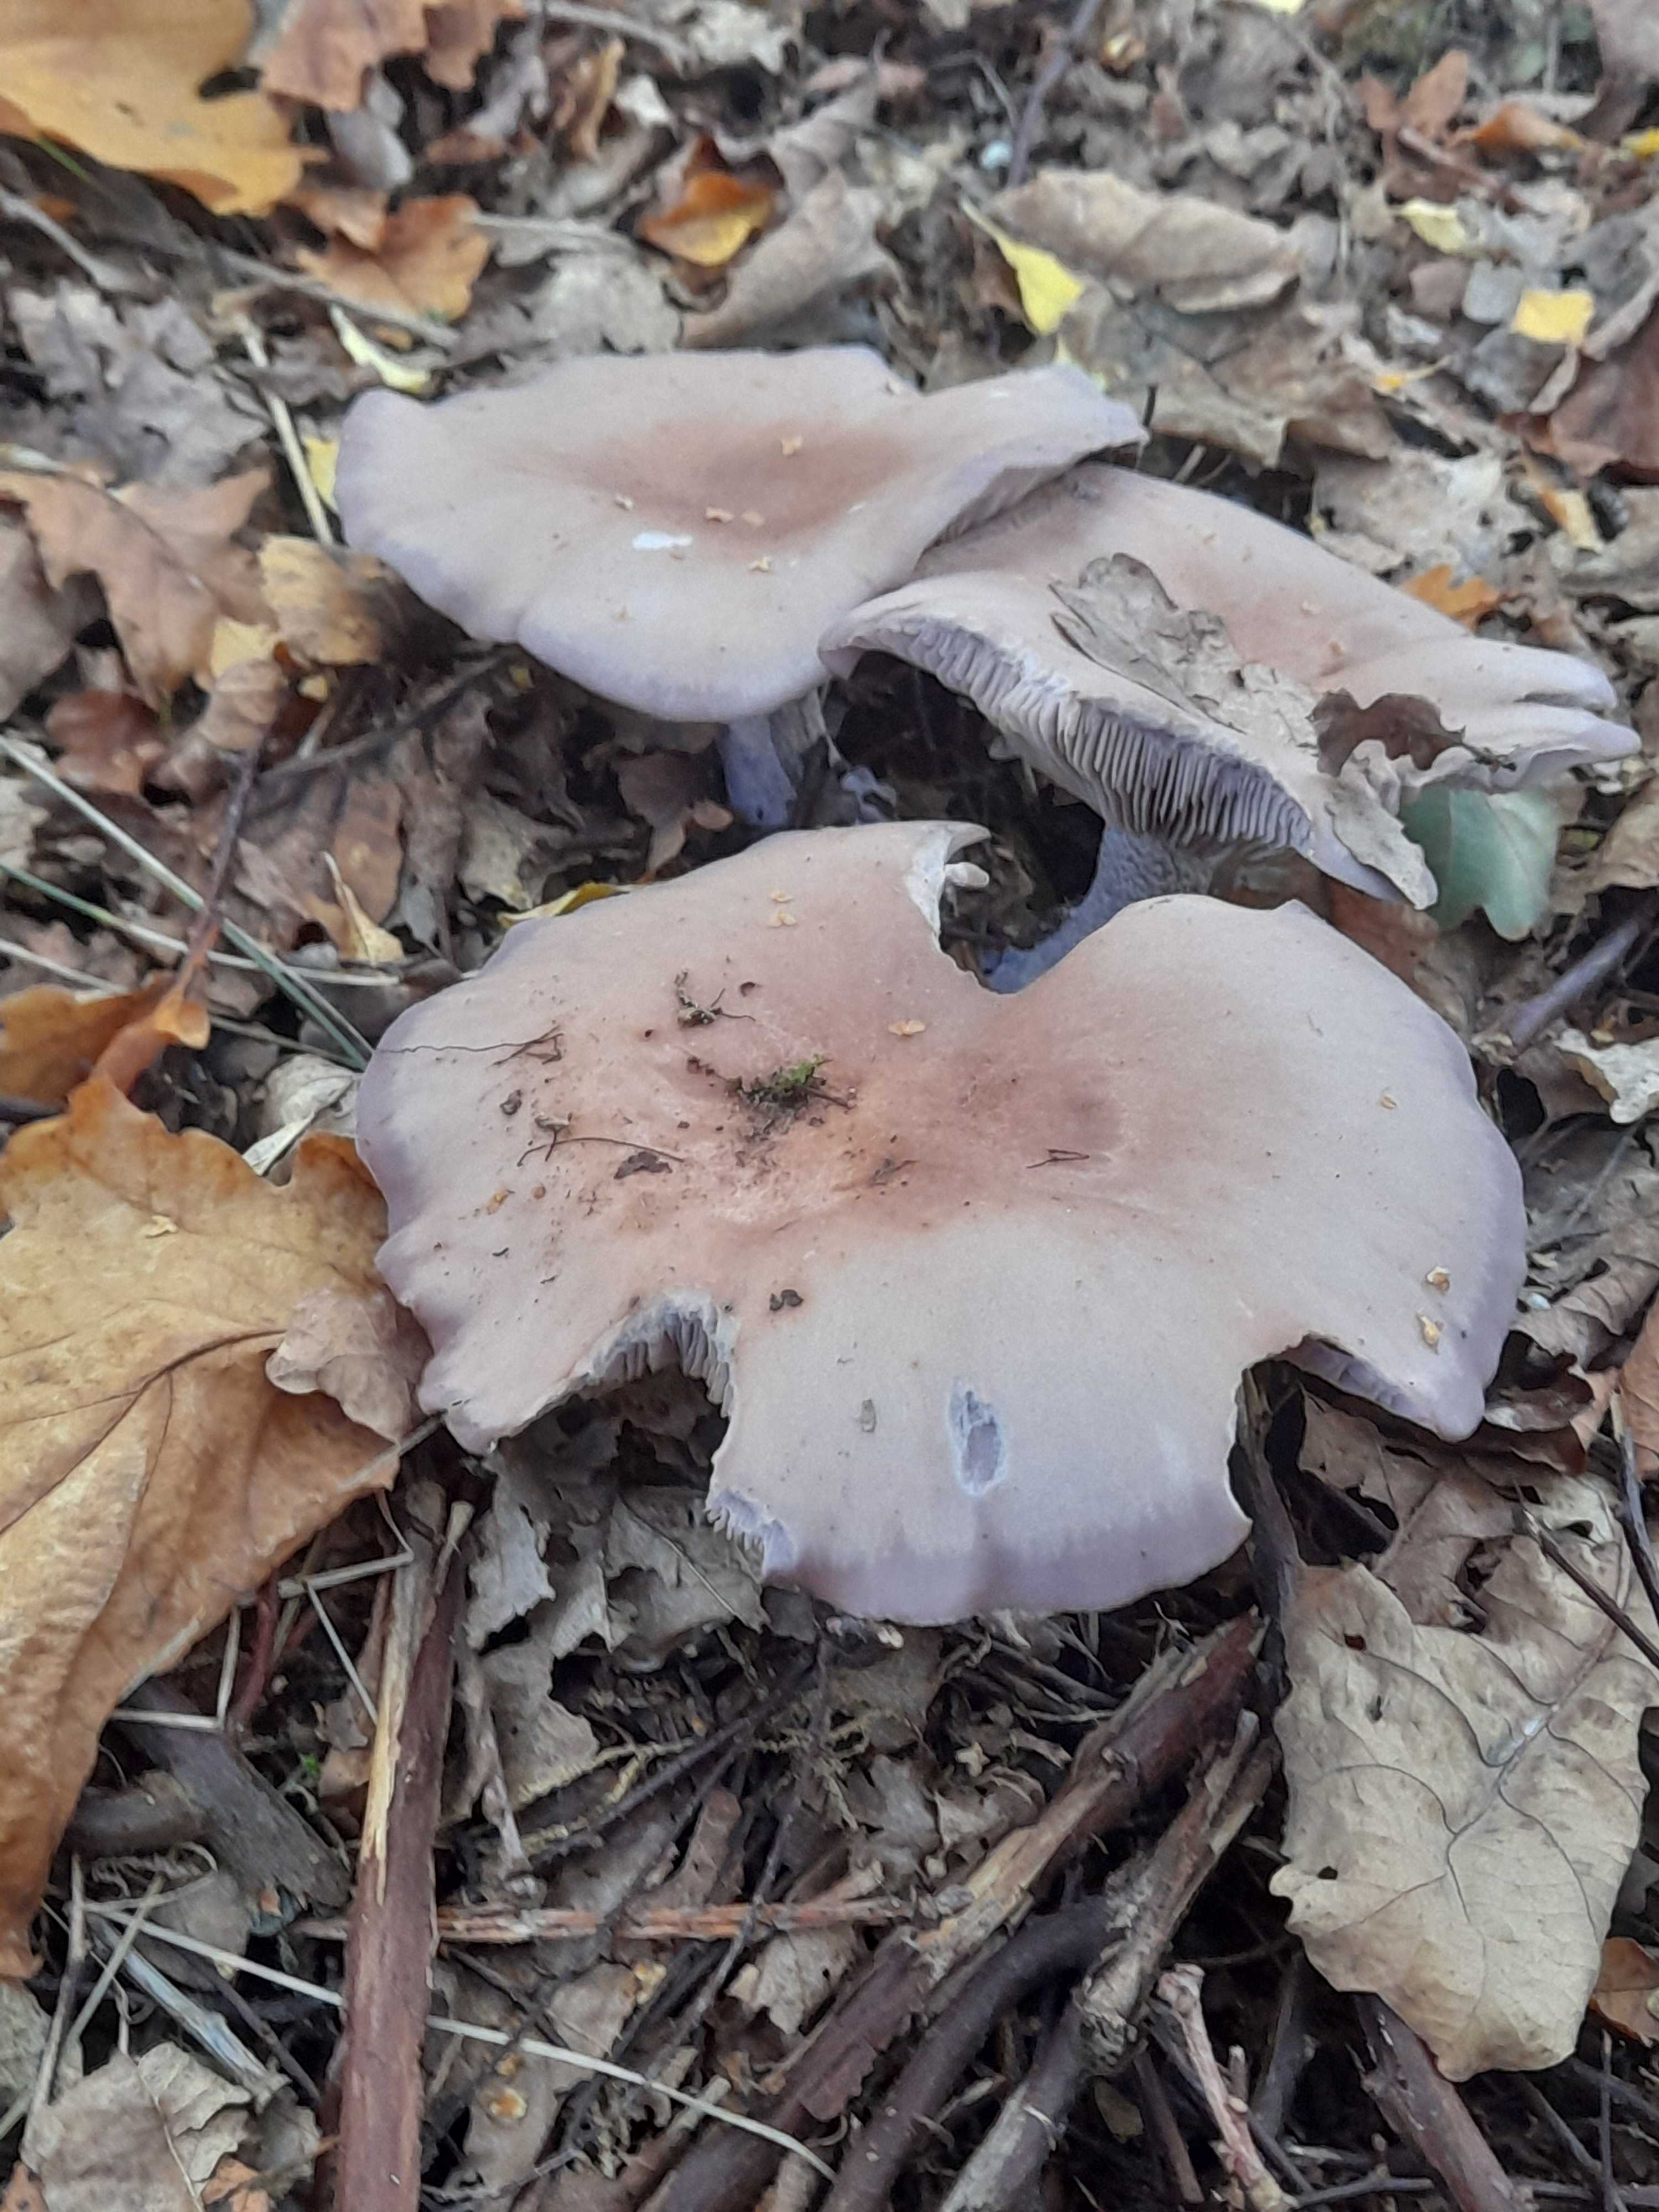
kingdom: Fungi
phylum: Basidiomycota
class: Agaricomycetes
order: Agaricales
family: Tricholomataceae
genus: Lepista
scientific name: Lepista nuda
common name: violet hekseringshat
